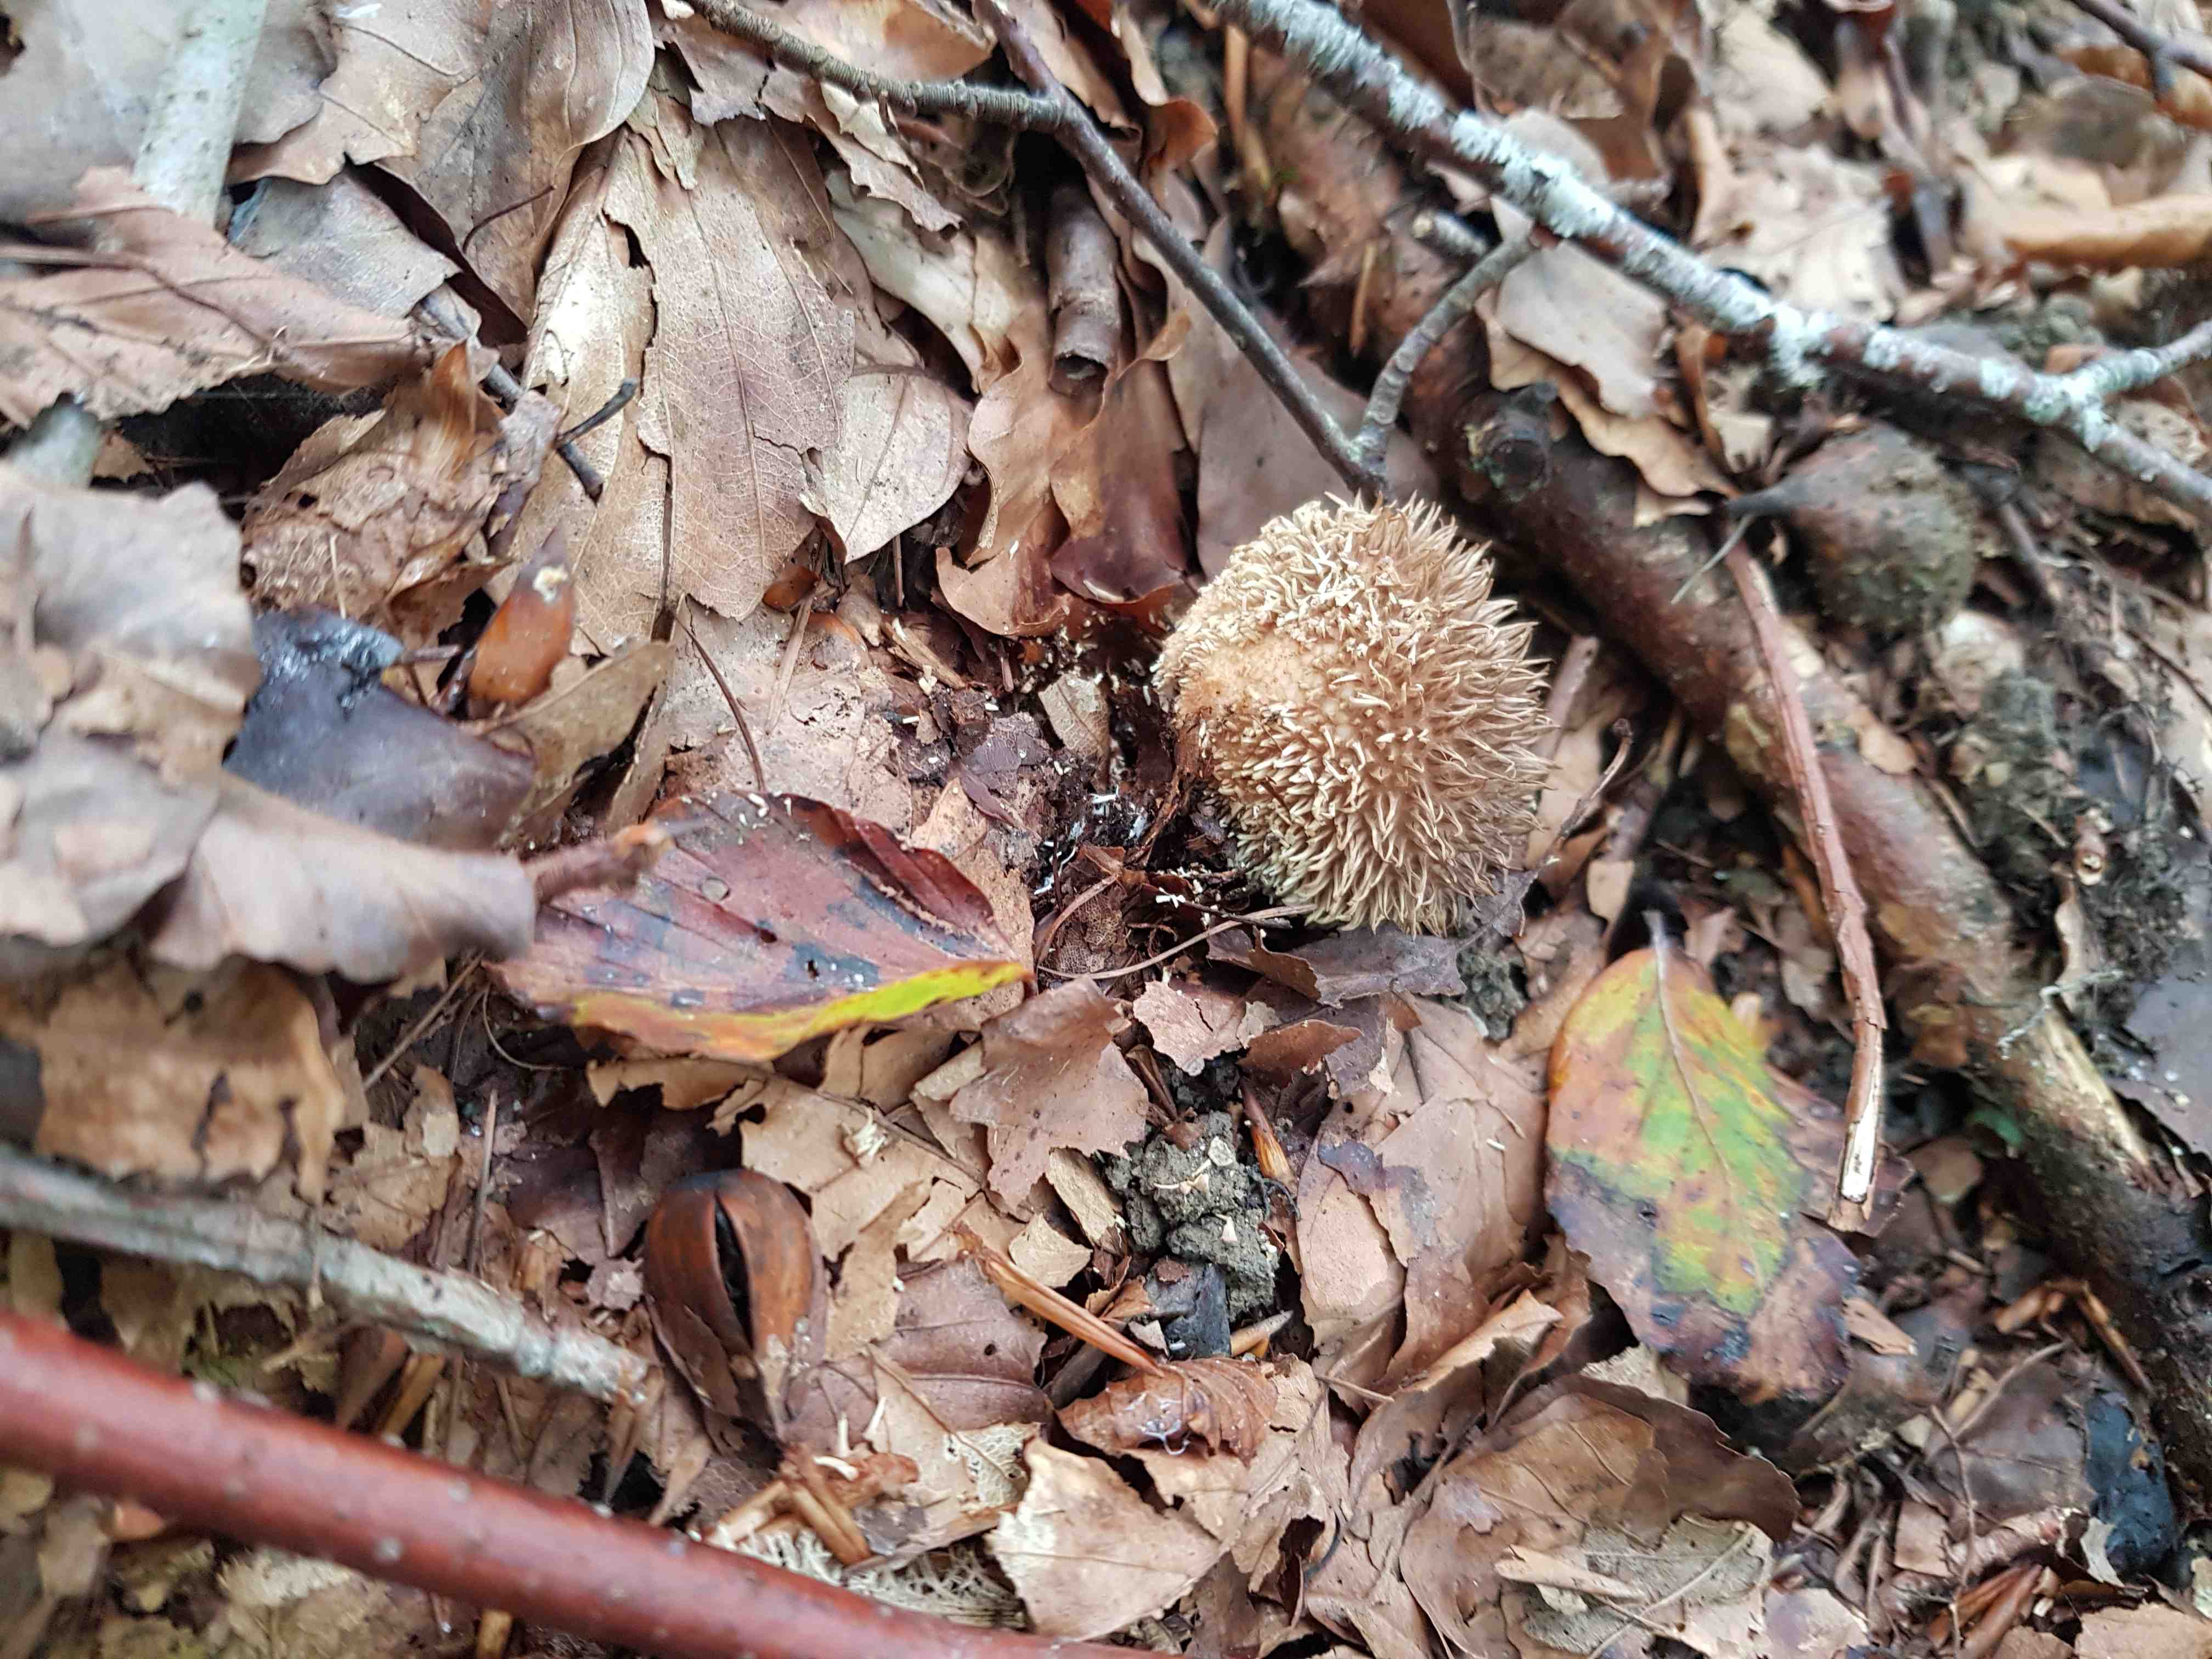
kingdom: Fungi
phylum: Basidiomycota
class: Agaricomycetes
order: Agaricales
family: Lycoperdaceae
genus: Lycoperdon
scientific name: Lycoperdon echinatum
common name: pindsvine-støvbold
